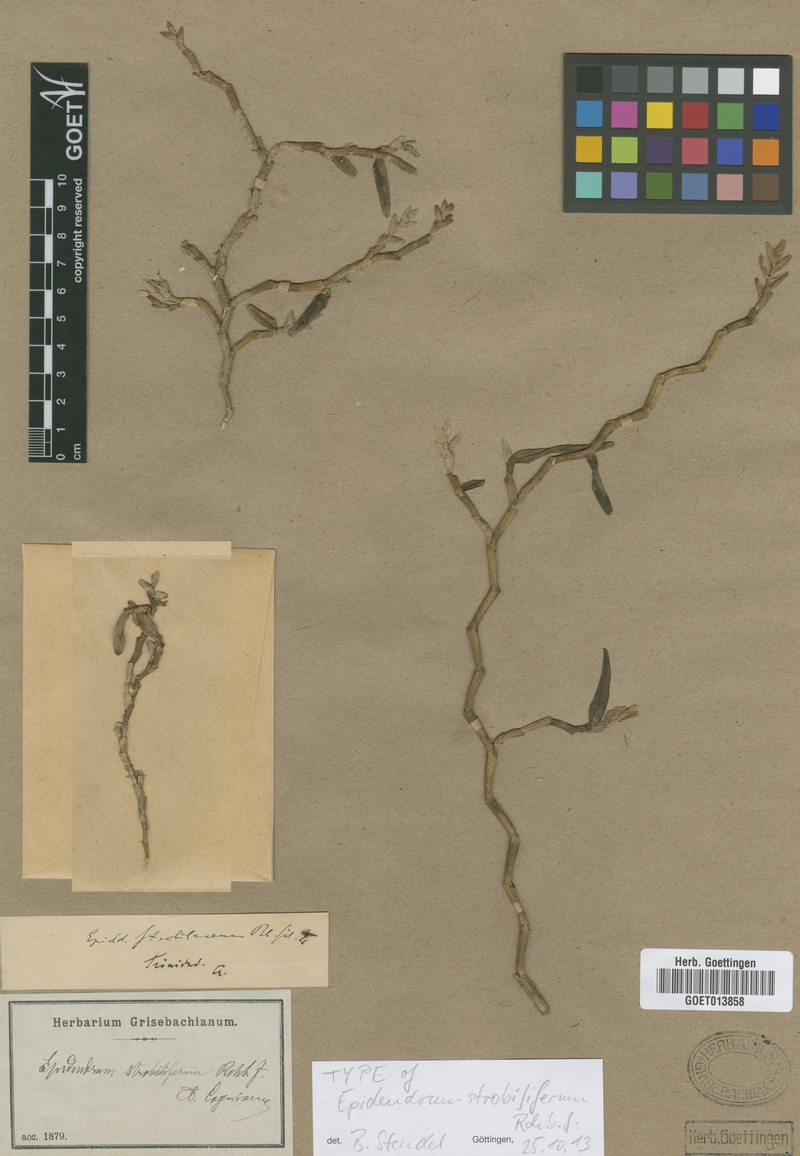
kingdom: Plantae
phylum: Tracheophyta
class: Liliopsida
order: Asparagales
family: Orchidaceae
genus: Epidendrum
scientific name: Epidendrum strobiliferum
